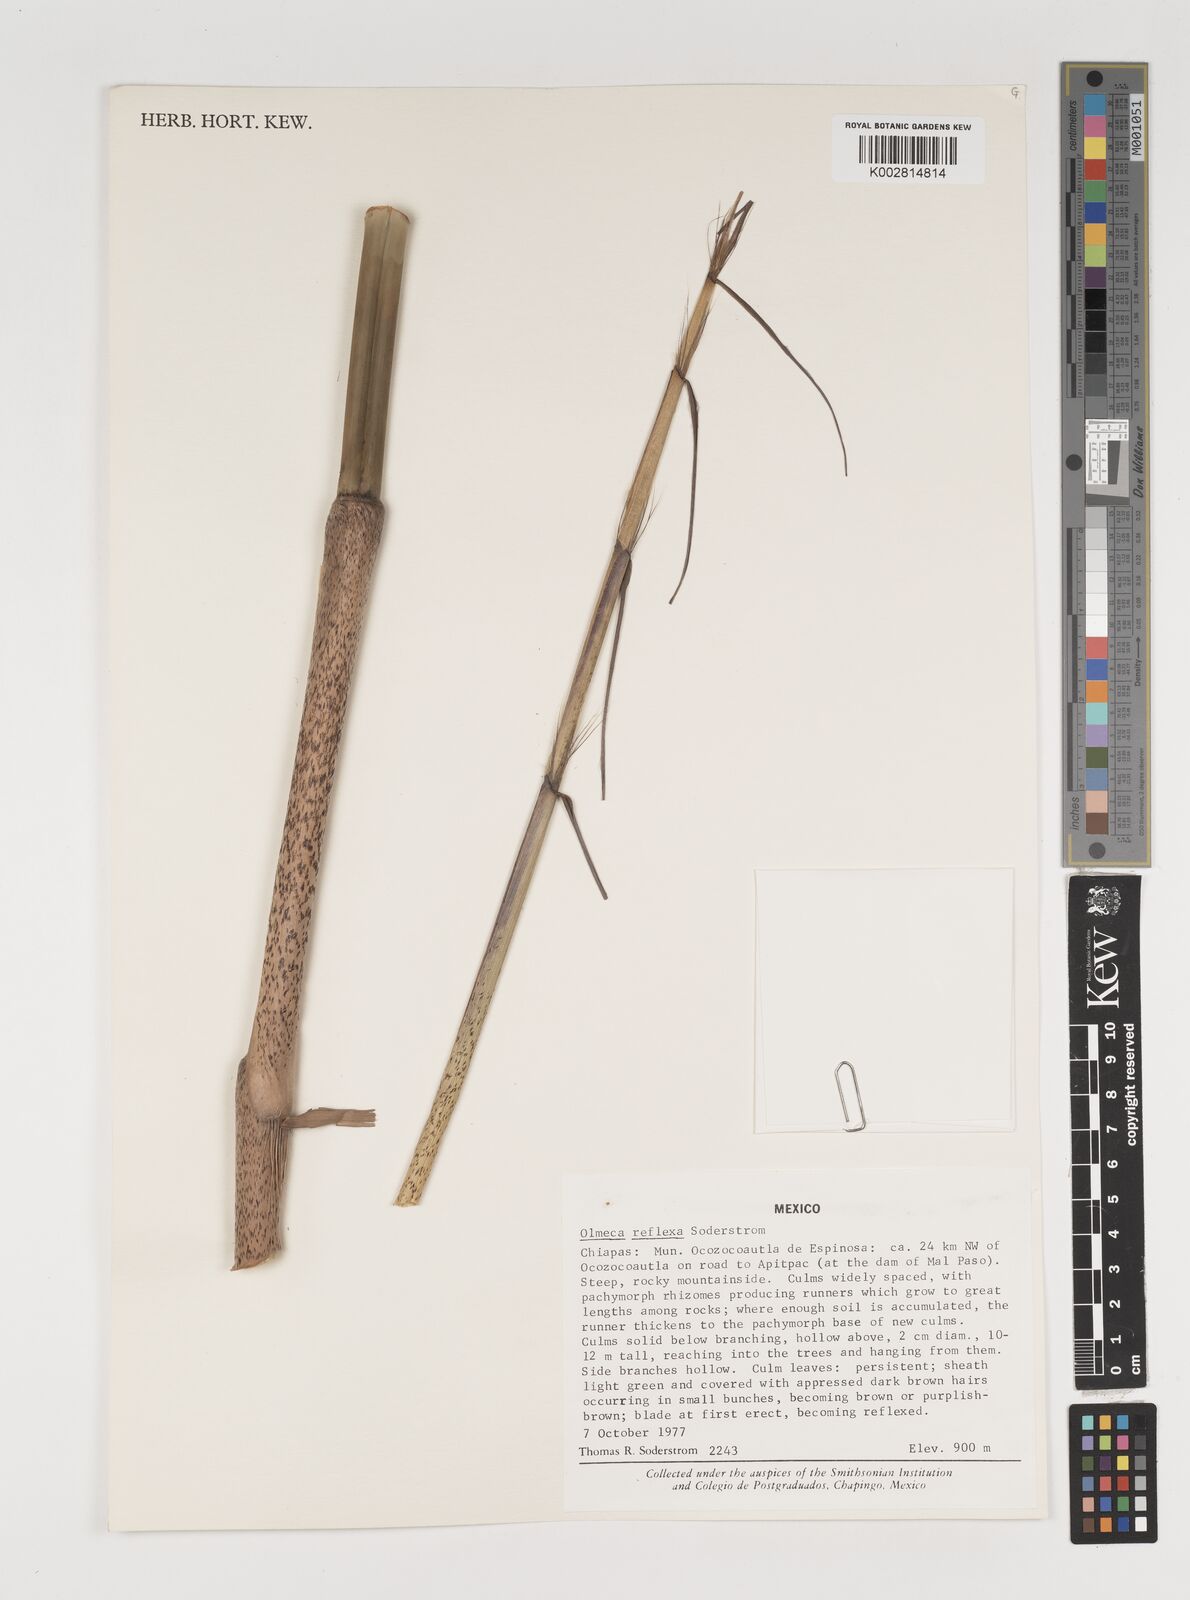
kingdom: Plantae
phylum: Tracheophyta
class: Liliopsida
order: Poales
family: Poaceae
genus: Olmeca
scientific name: Olmeca reflexa
